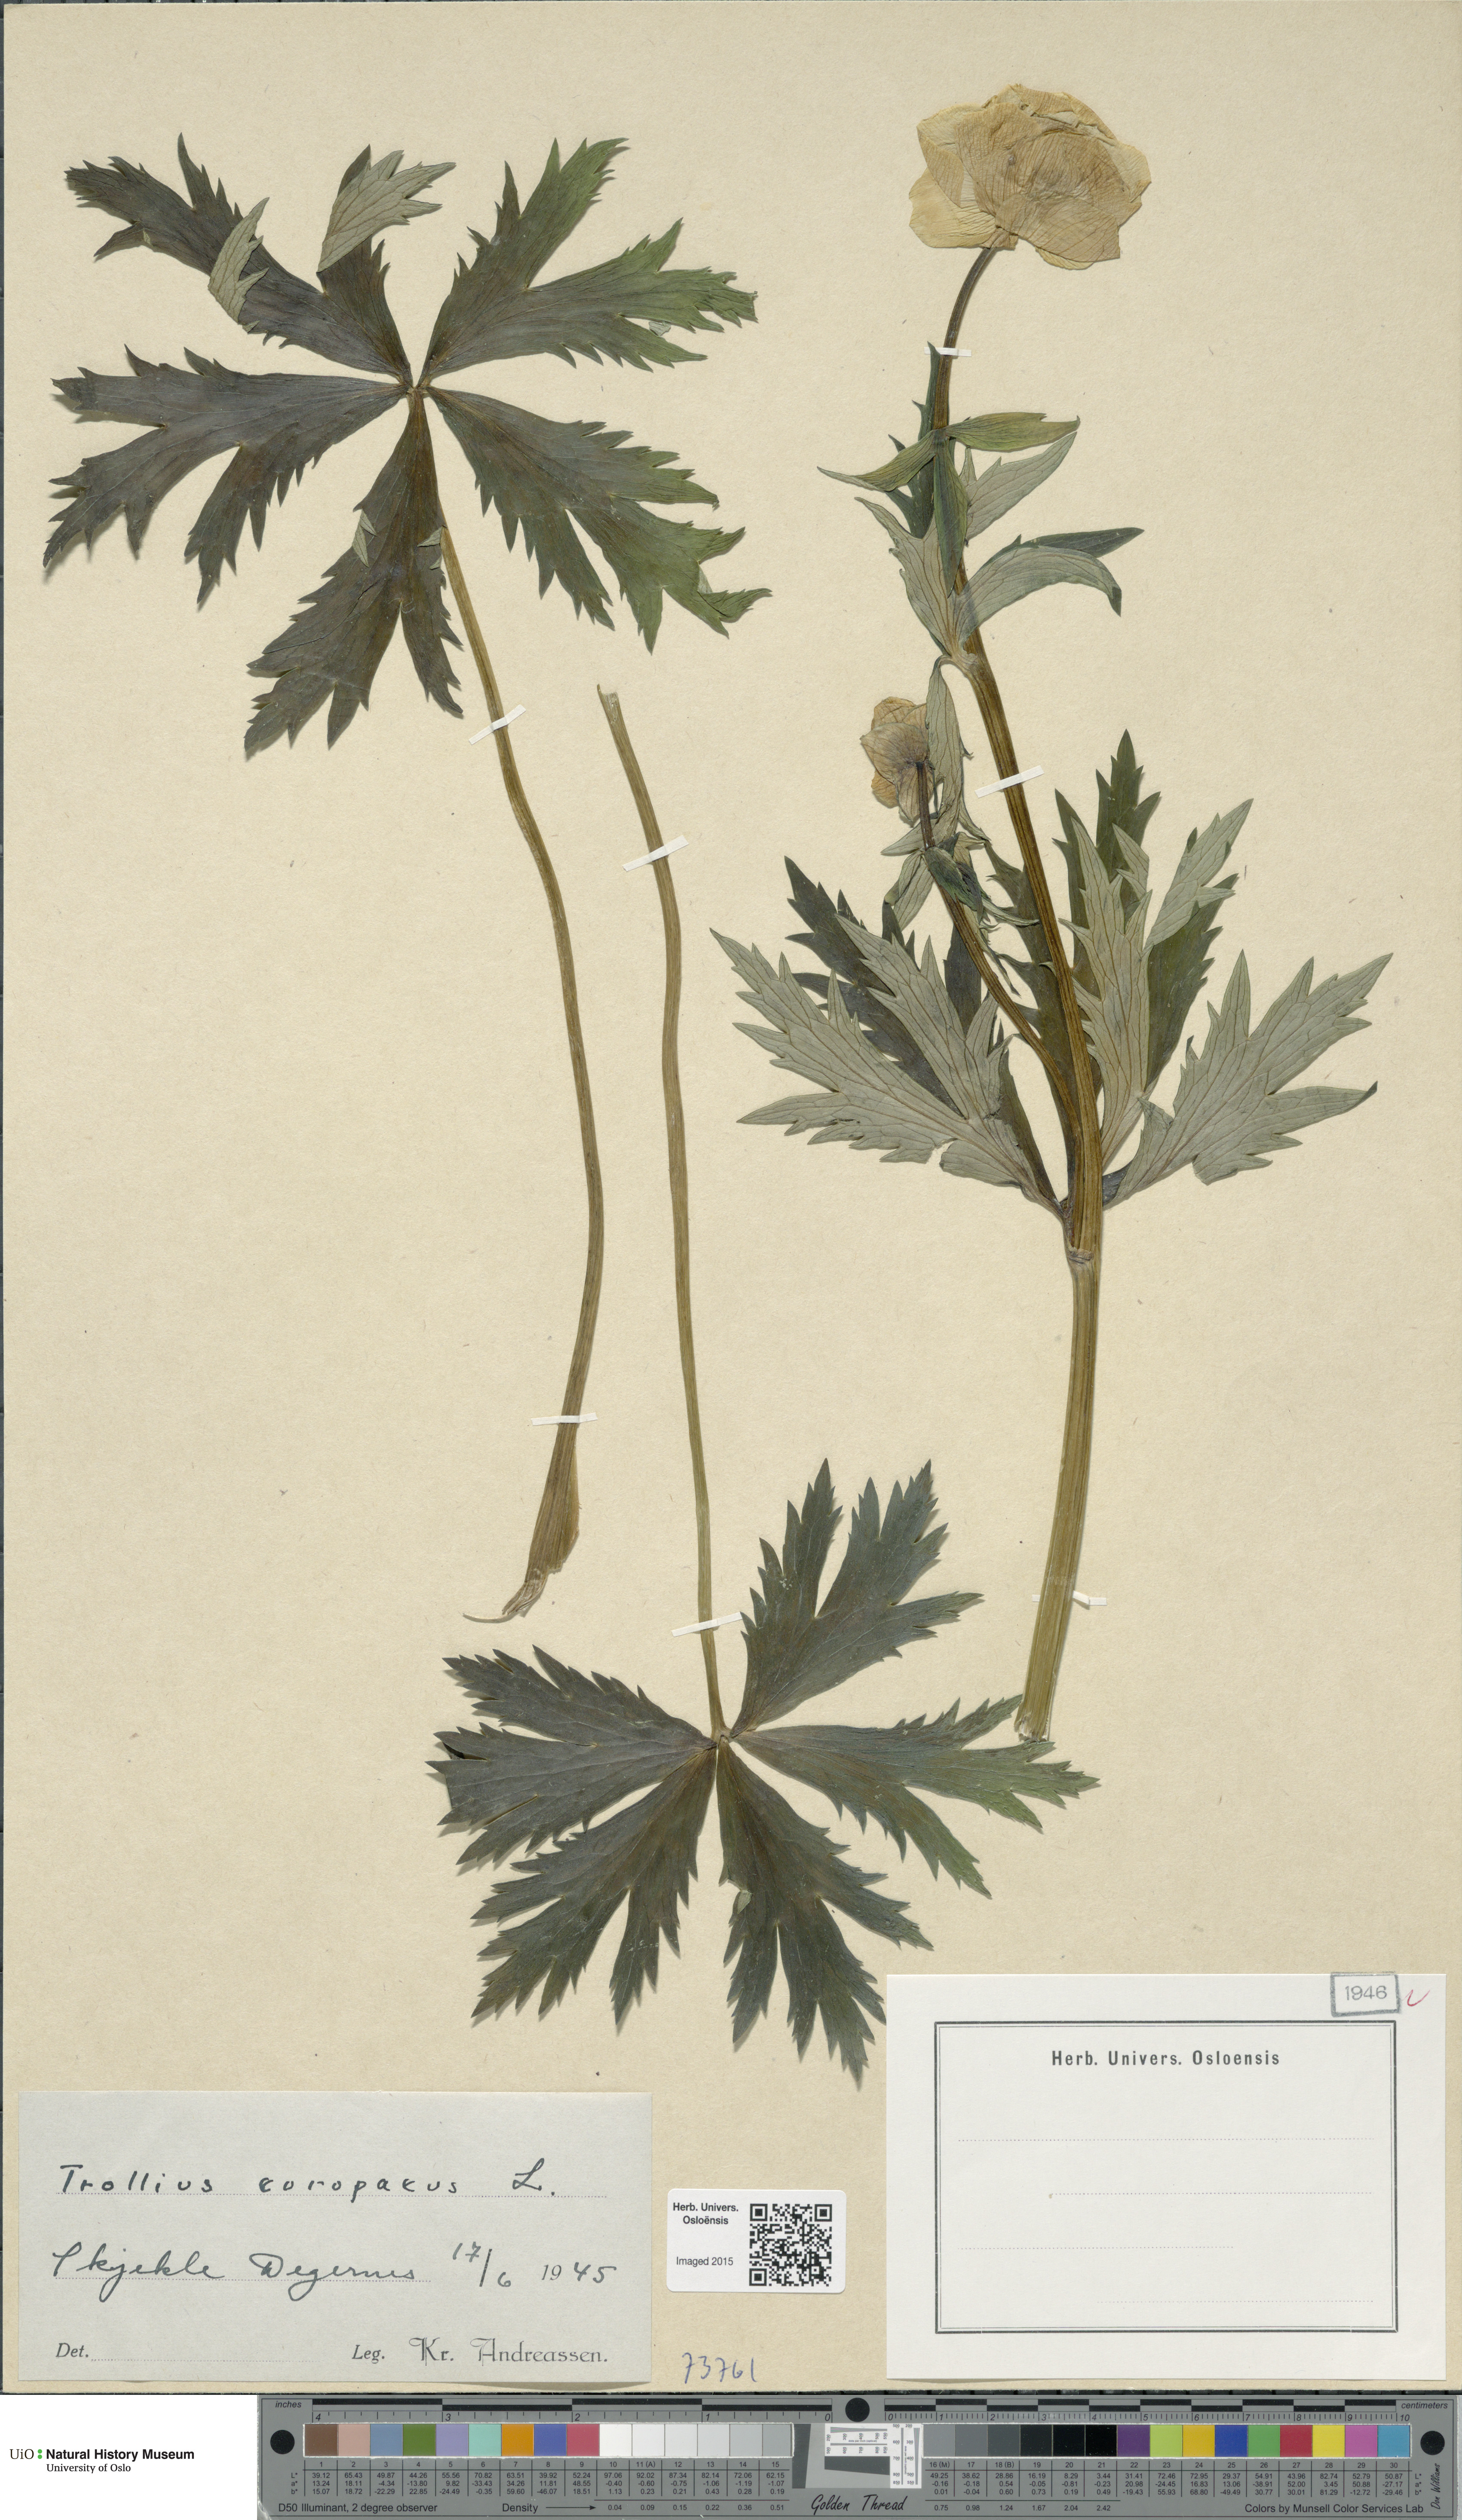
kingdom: Plantae
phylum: Tracheophyta
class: Magnoliopsida
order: Ranunculales
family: Ranunculaceae
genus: Trollius
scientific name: Trollius europaeus
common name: European globeflower
